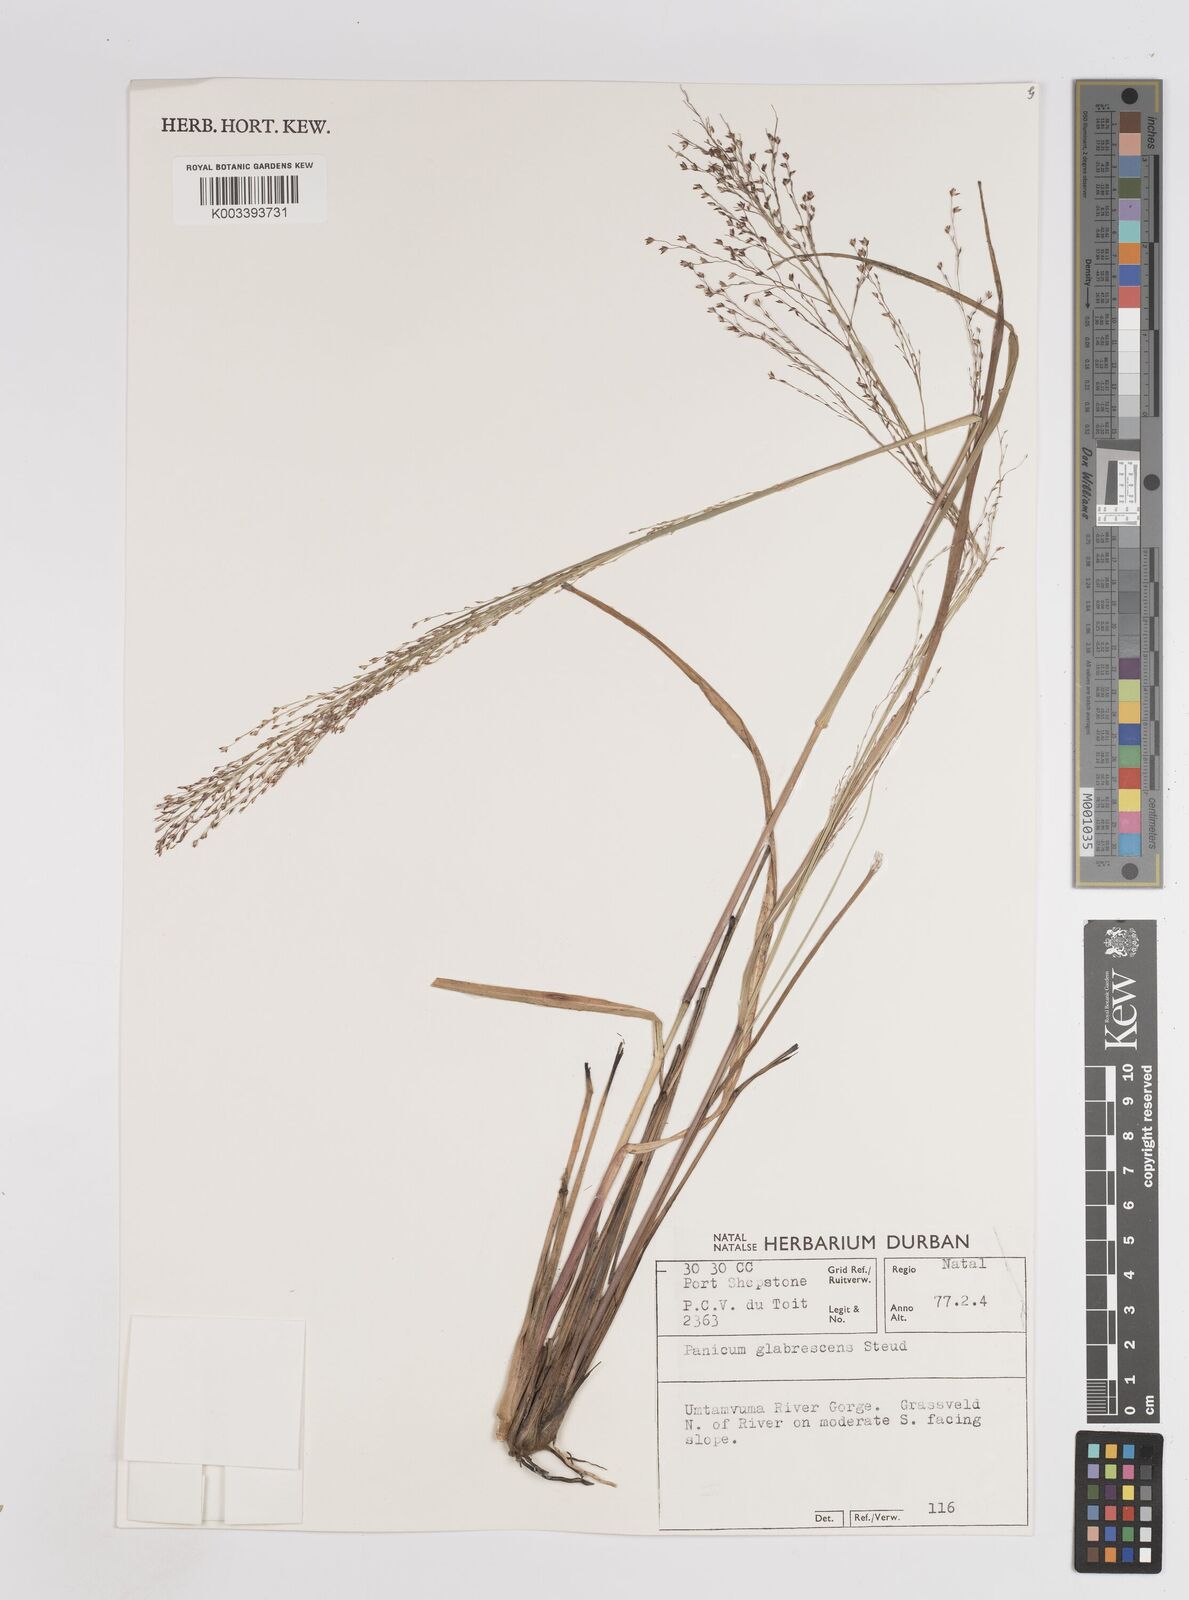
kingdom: Plantae
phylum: Tracheophyta
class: Liliopsida
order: Poales
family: Poaceae
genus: Panicum
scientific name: Panicum dregeanum
